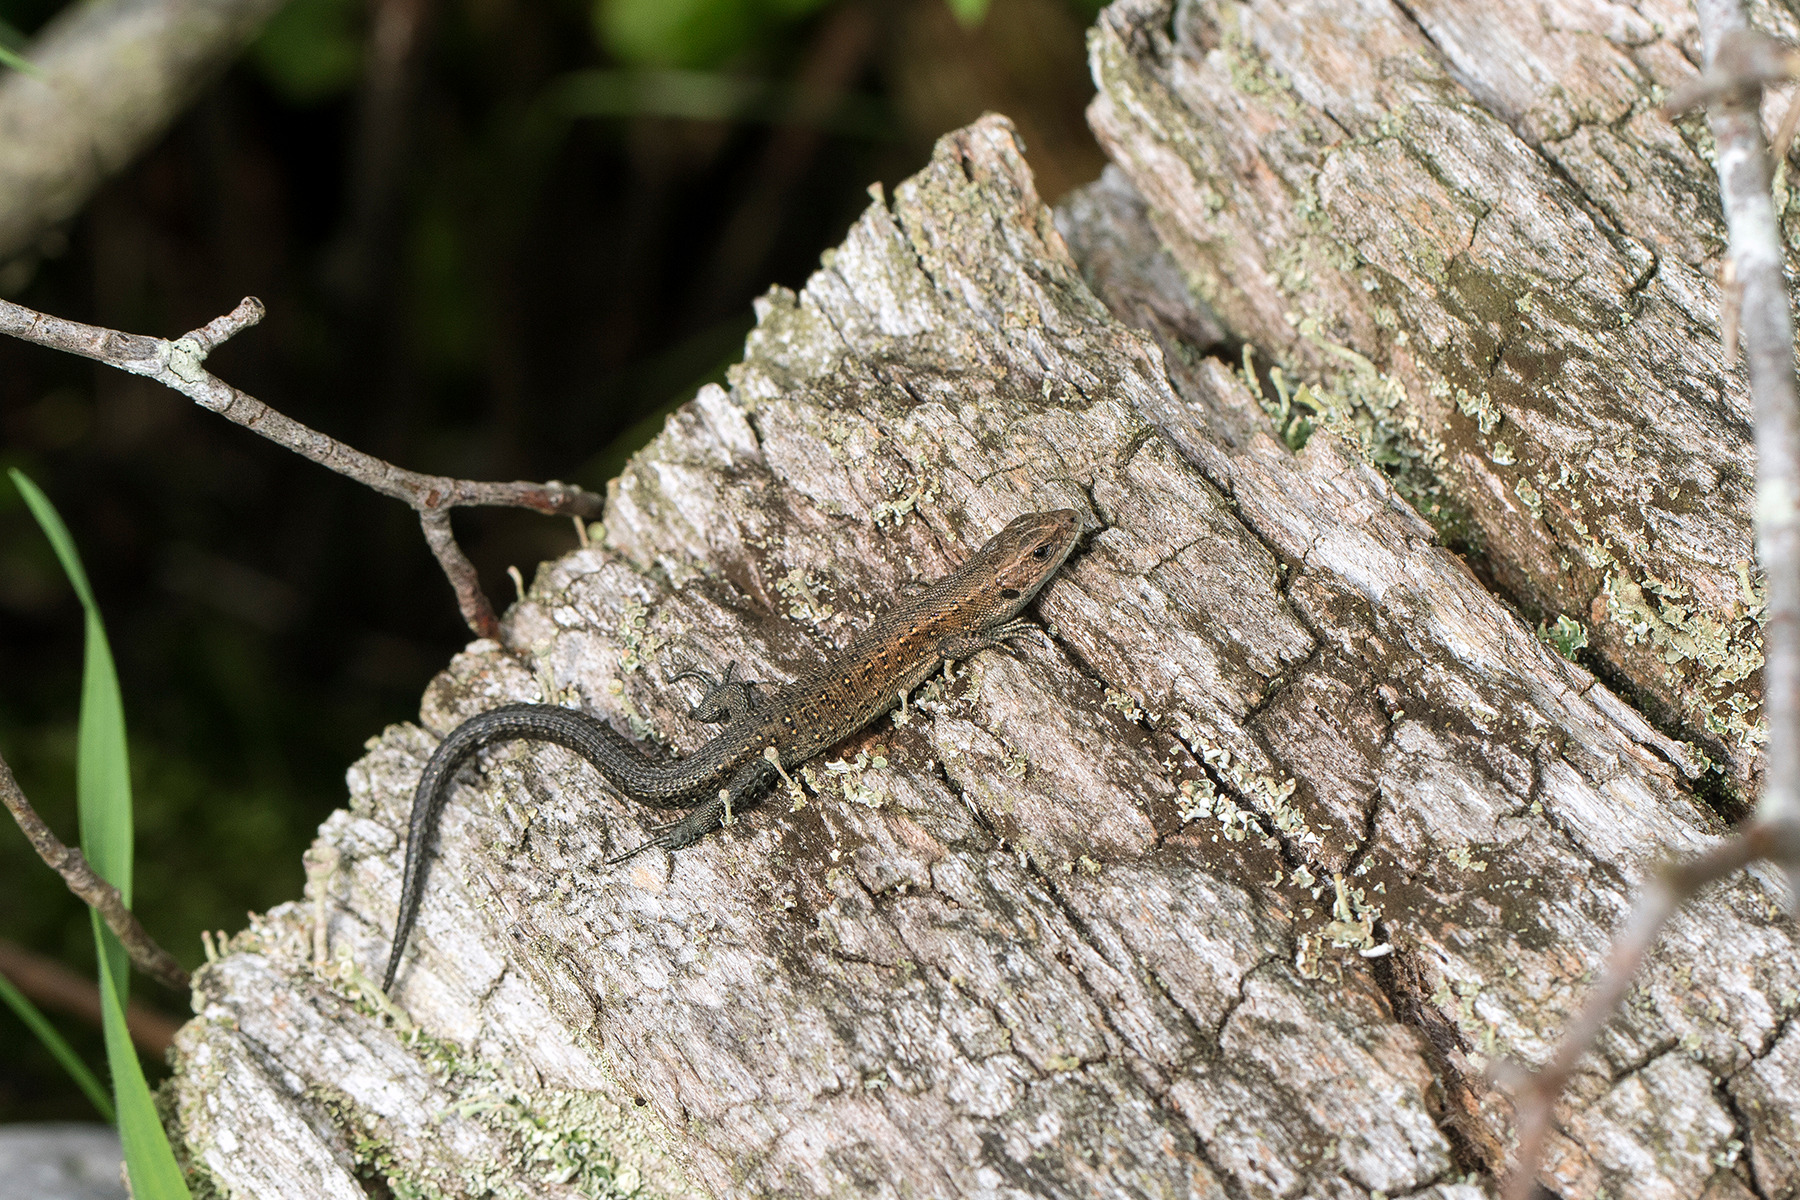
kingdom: Animalia
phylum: Chordata
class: Squamata
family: Lacertidae
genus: Zootoca
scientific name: Zootoca vivipara
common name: Skovfirben
